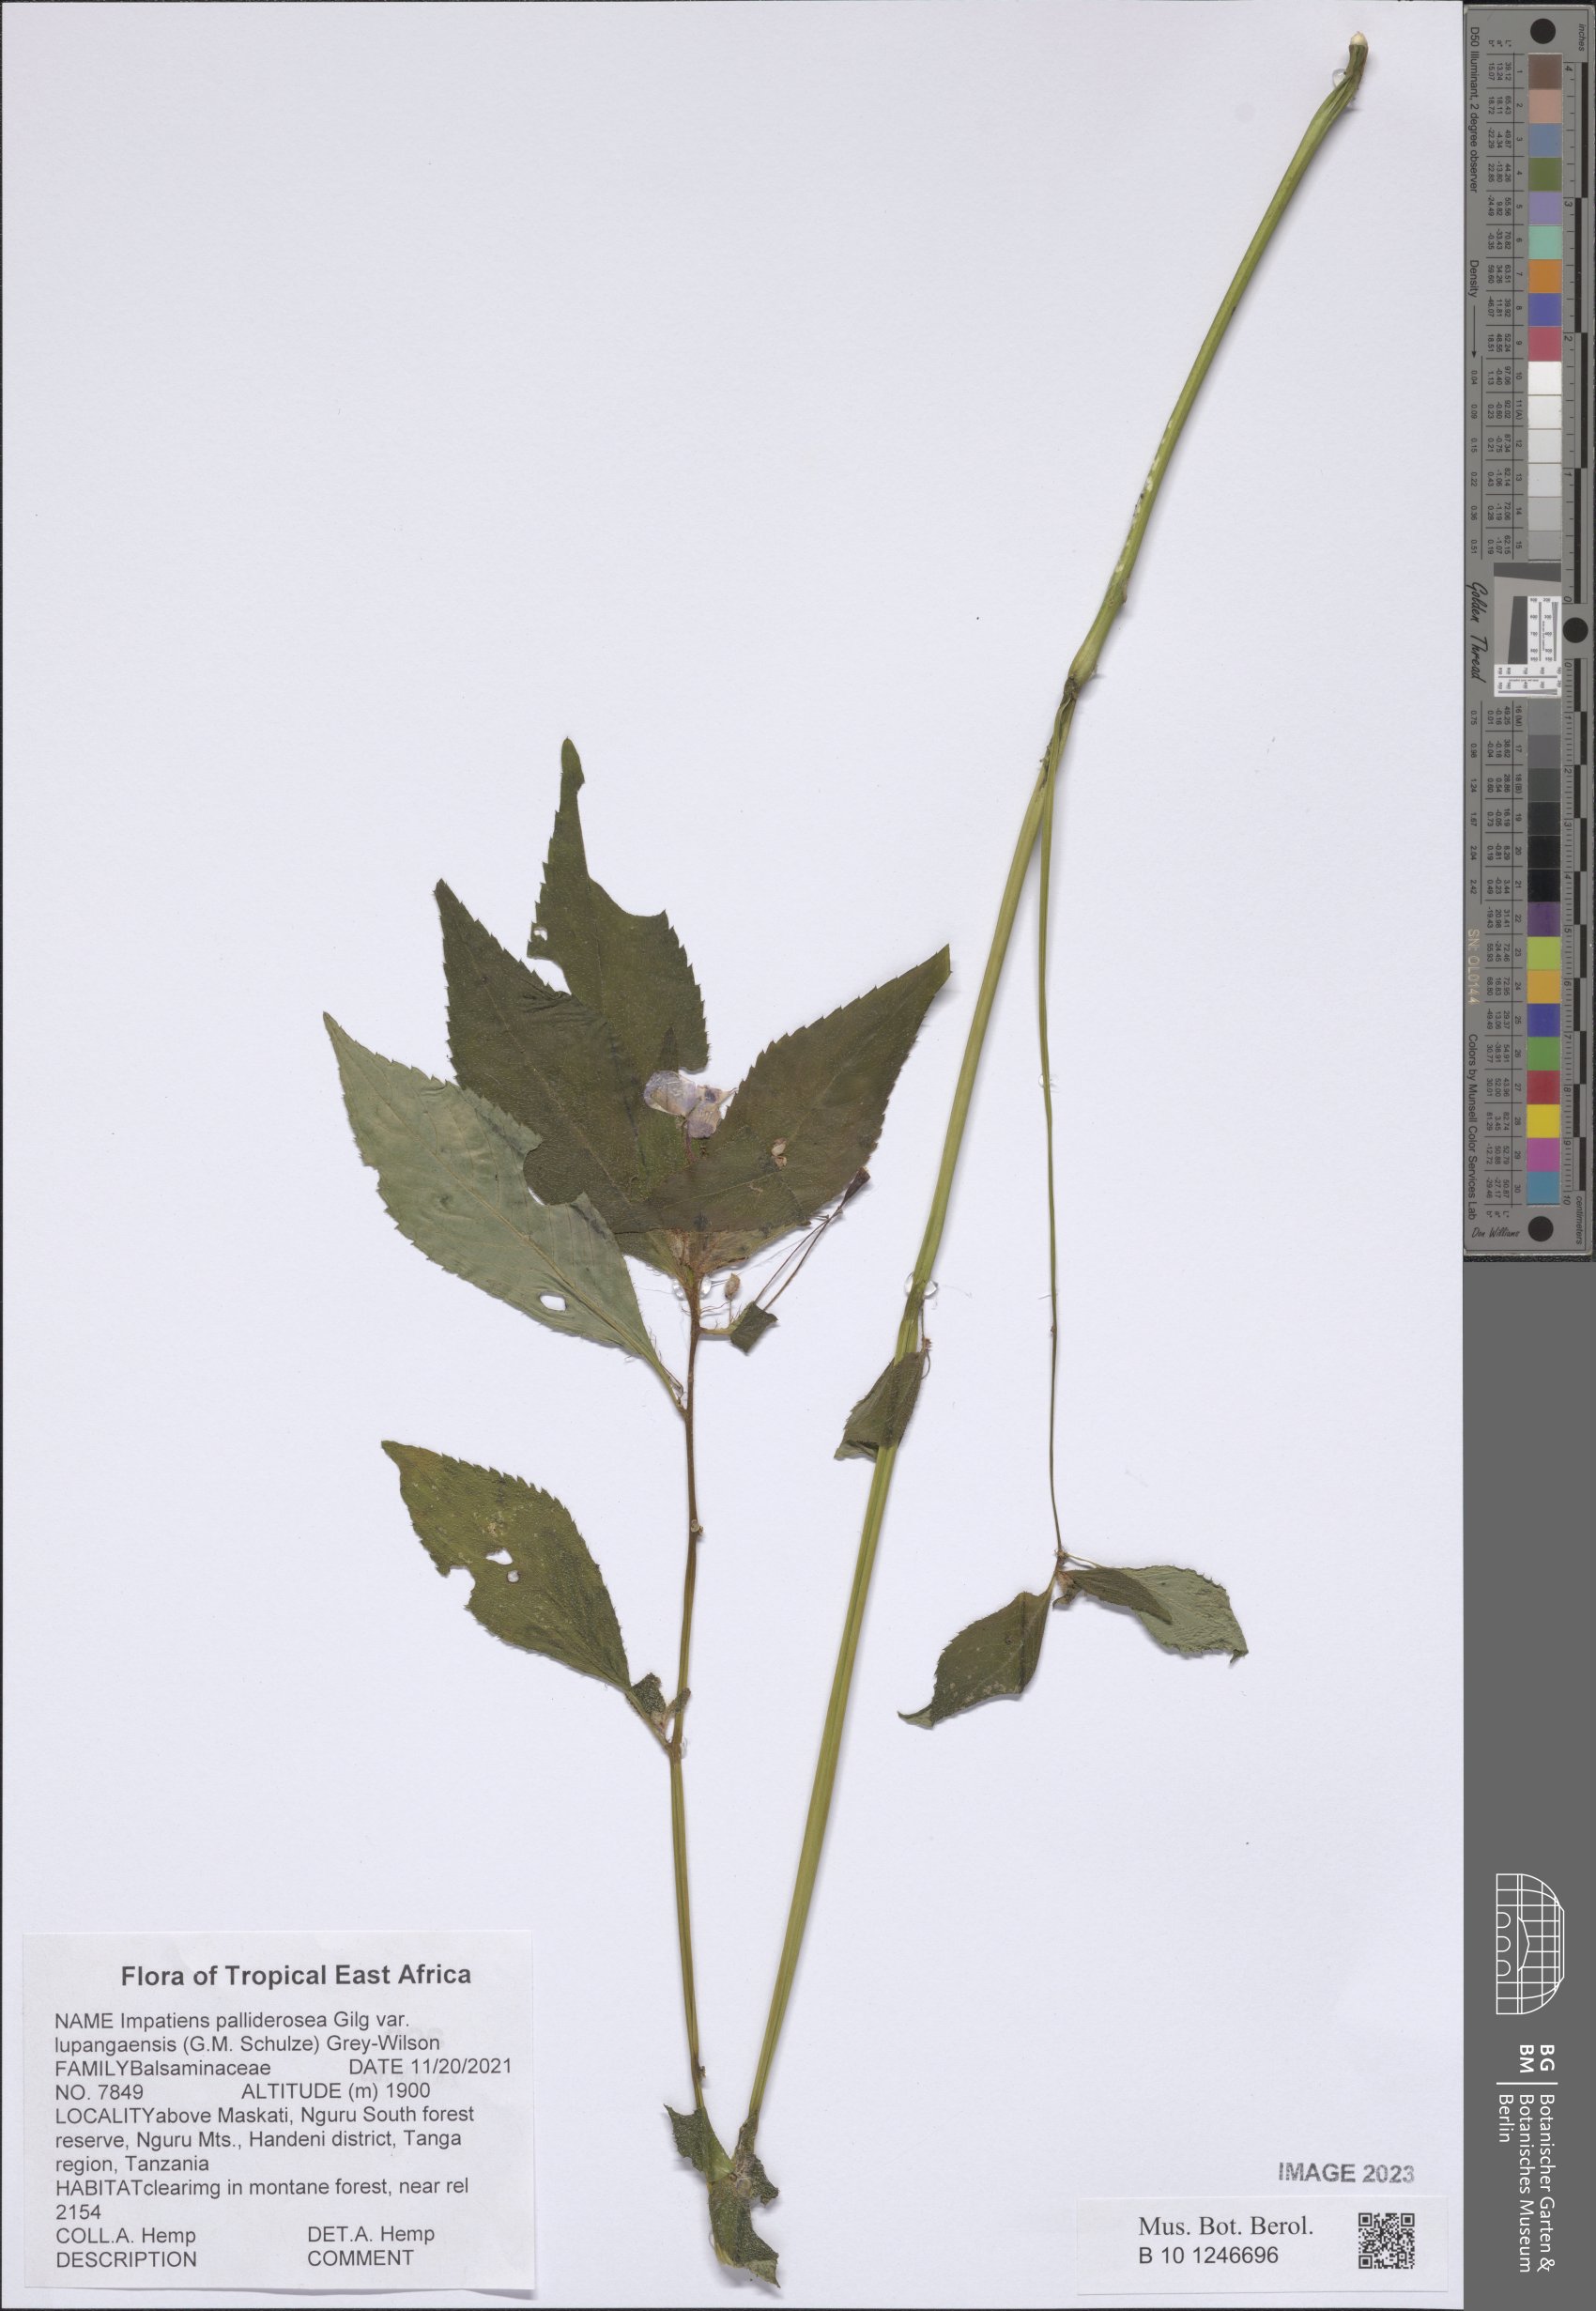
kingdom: Plantae
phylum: Tracheophyta
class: Magnoliopsida
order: Ericales
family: Balsaminaceae
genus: Impatiens
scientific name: Impatiens pallide-rosea
